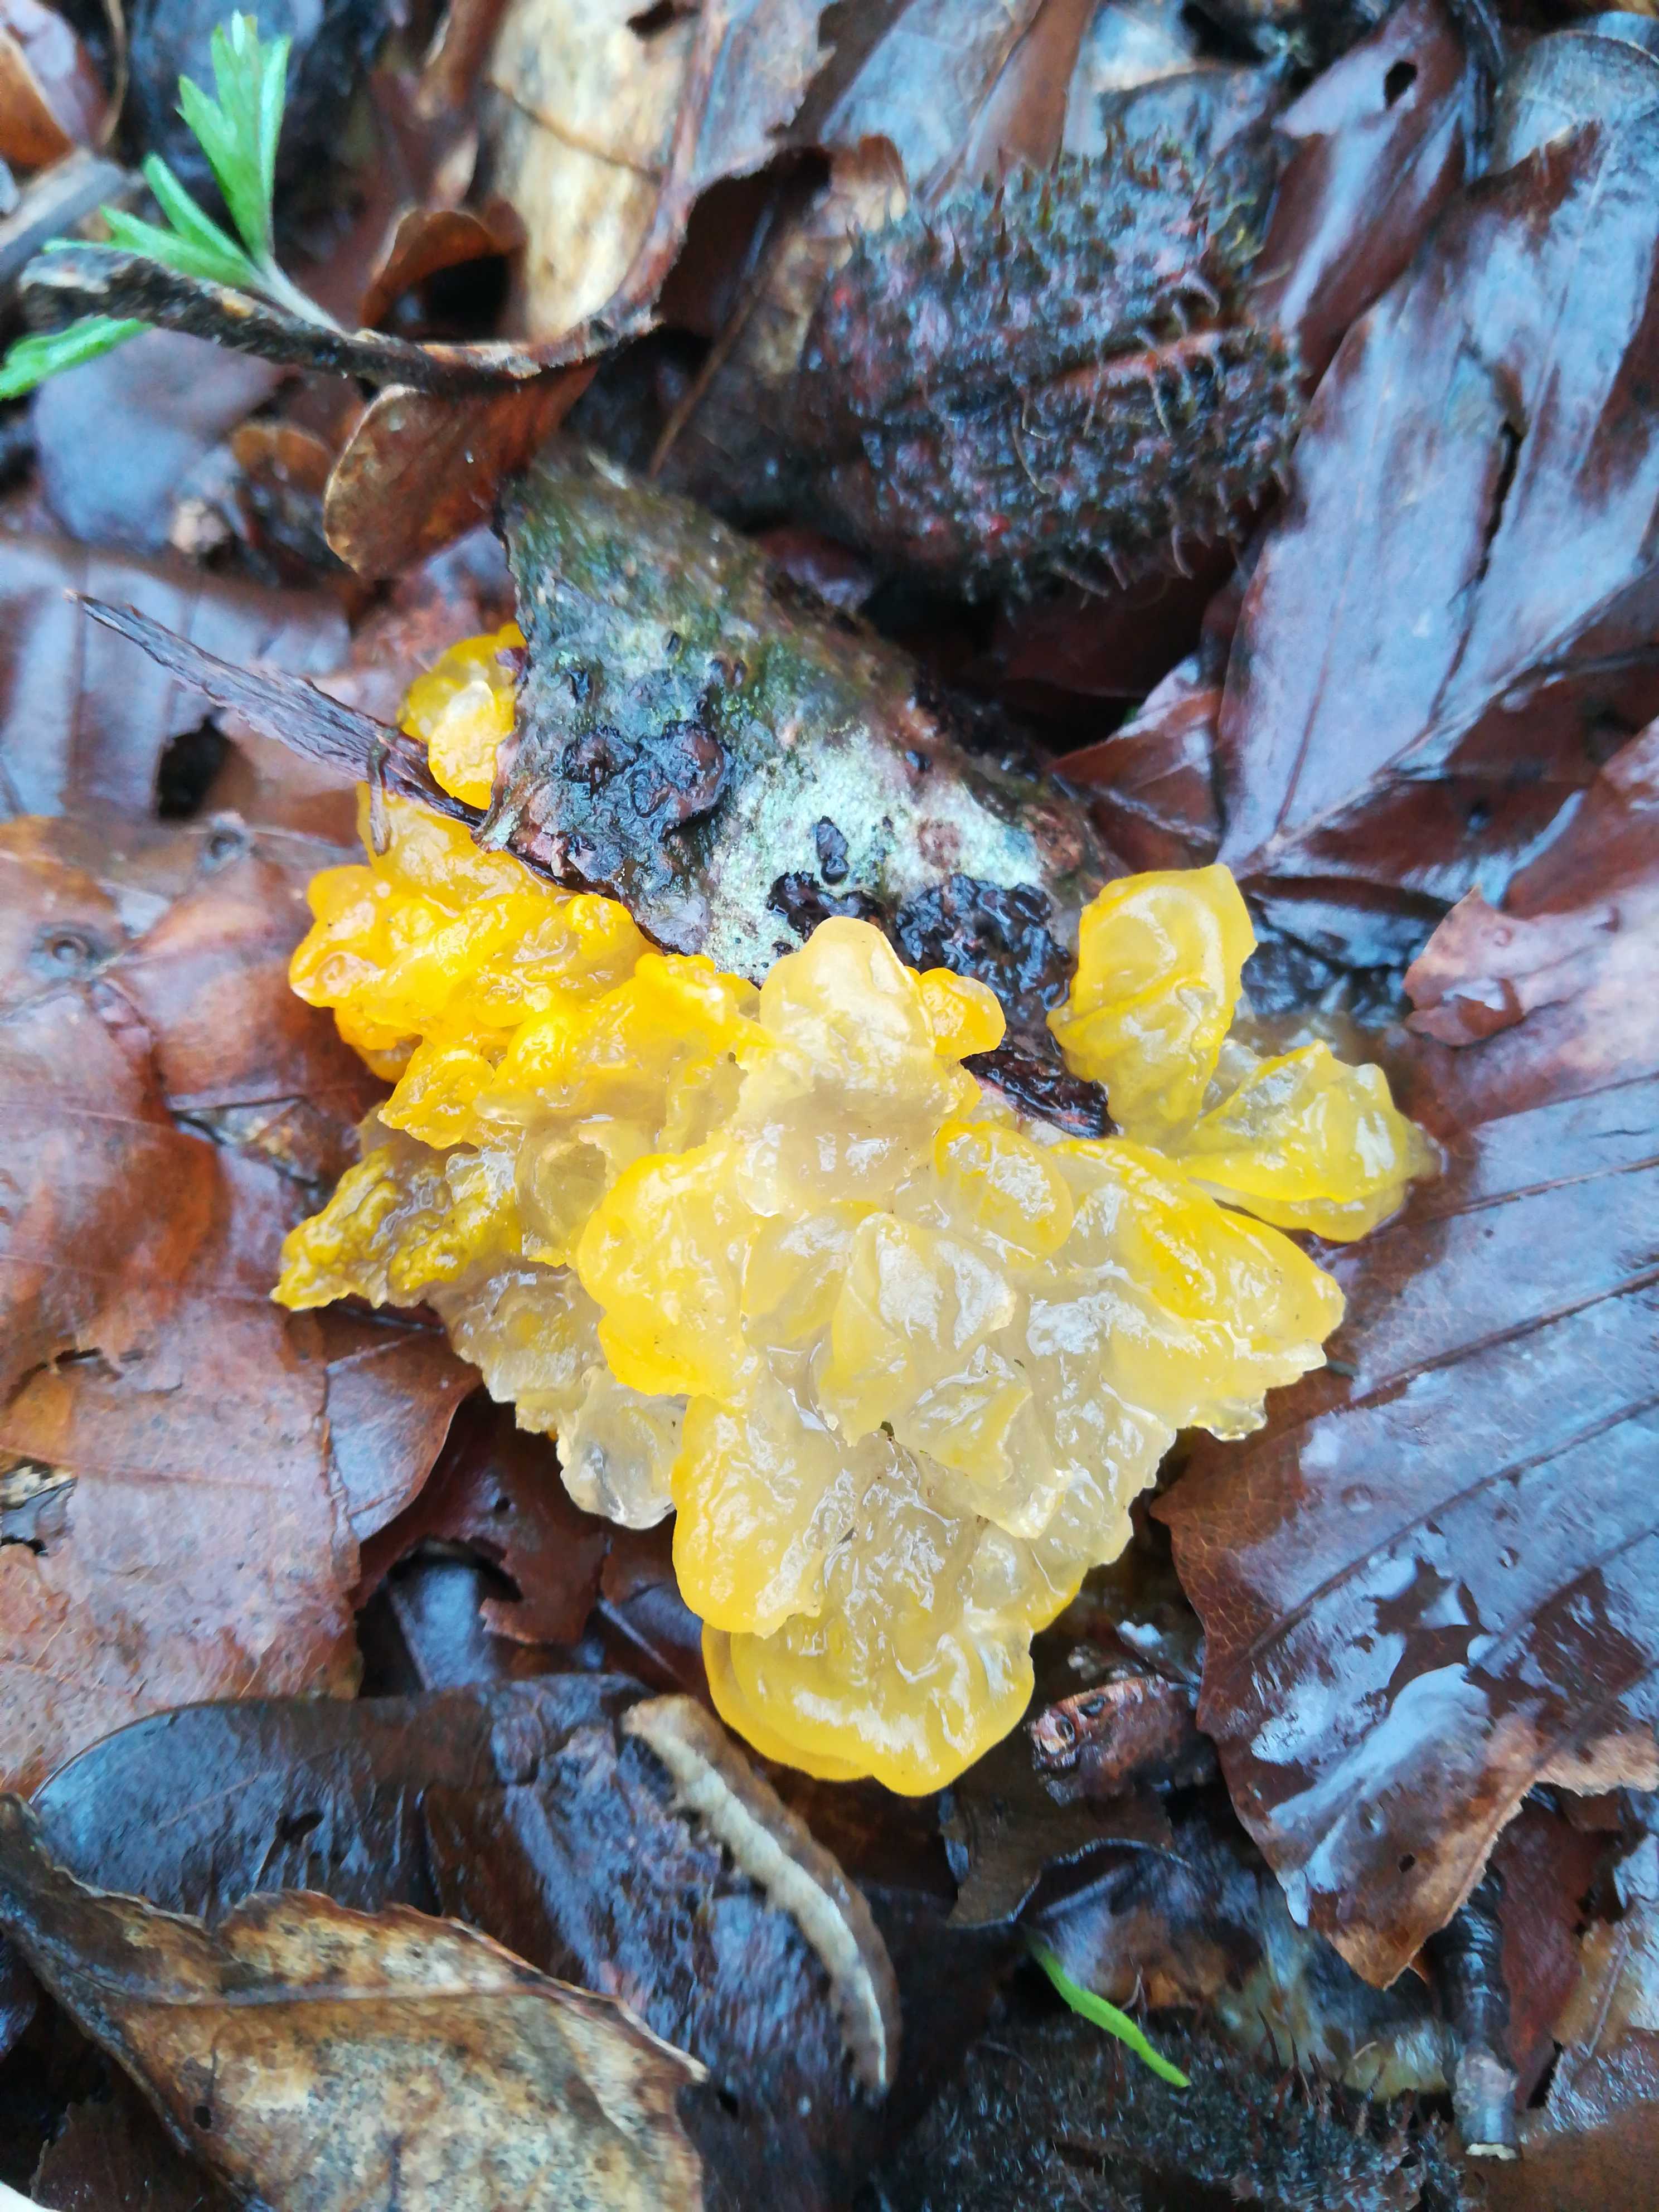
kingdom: Fungi
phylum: Basidiomycota
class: Tremellomycetes
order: Tremellales
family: Tremellaceae
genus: Tremella
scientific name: Tremella mesenterica
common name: gul bævresvamp
